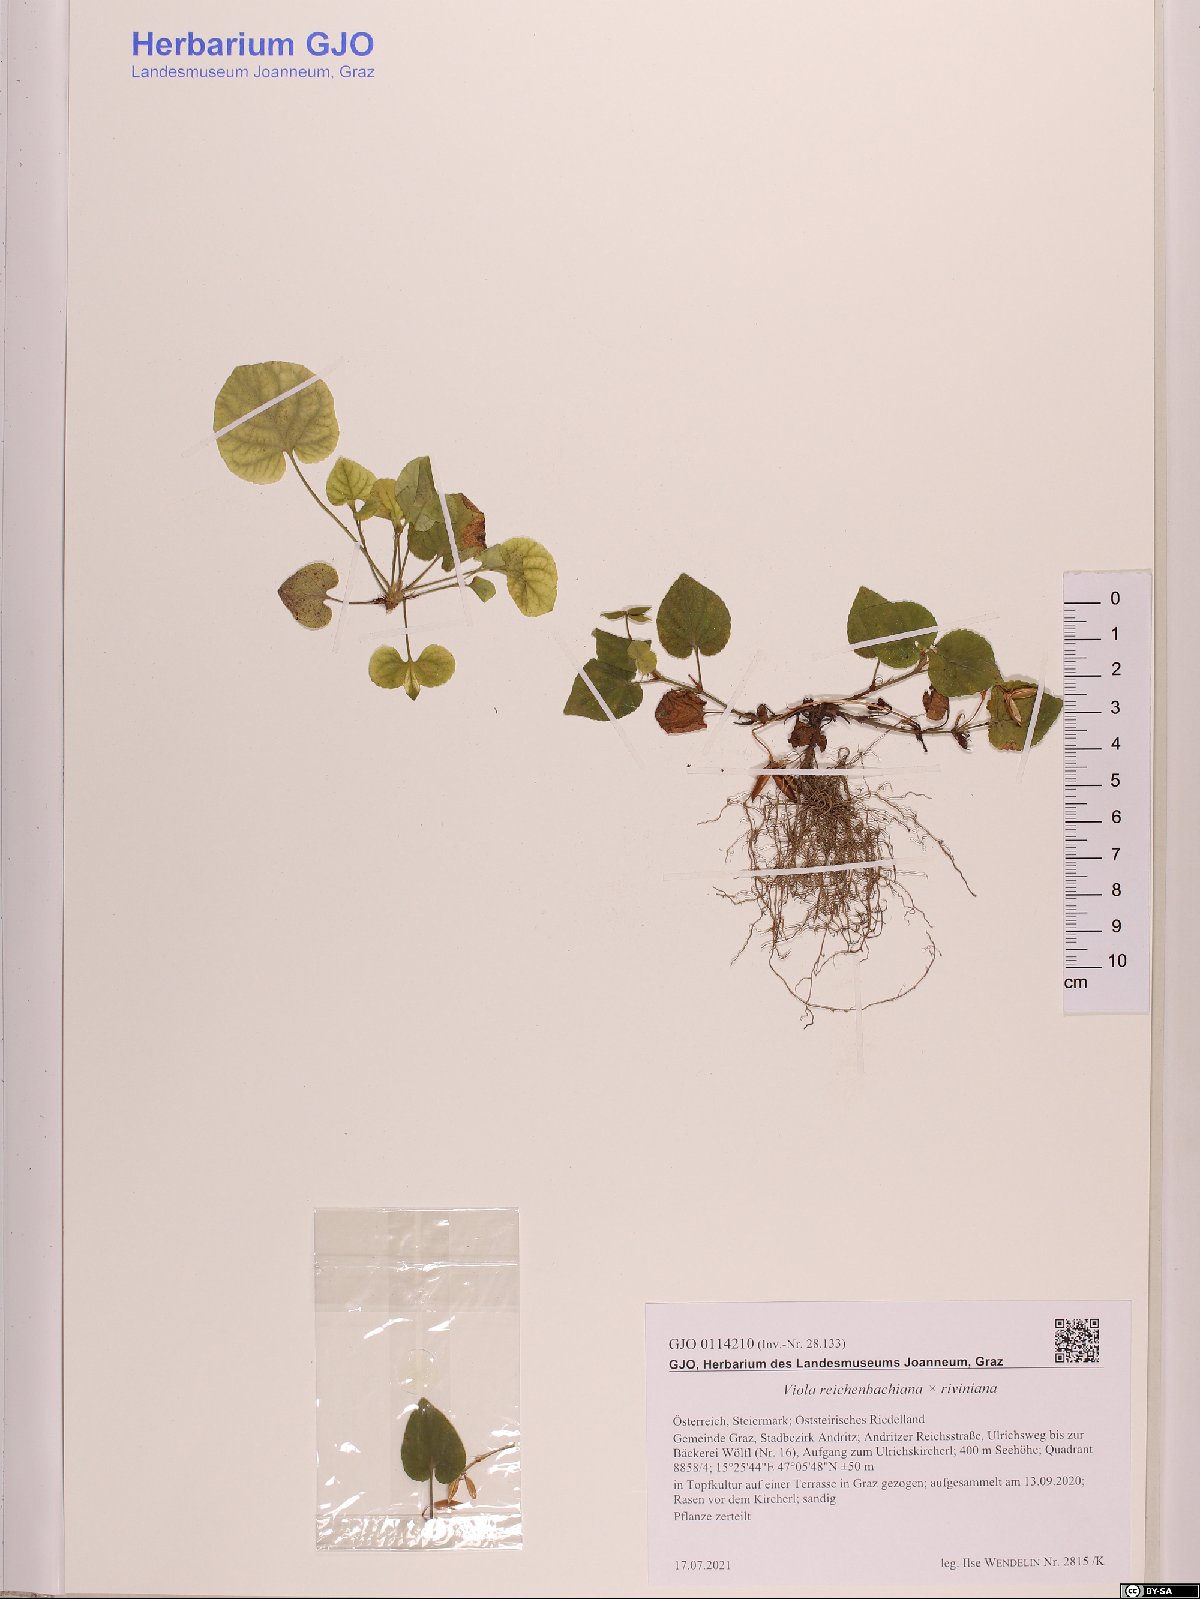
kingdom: Plantae
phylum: Tracheophyta
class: Magnoliopsida
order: Malpighiales
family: Violaceae
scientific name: Violaceae
